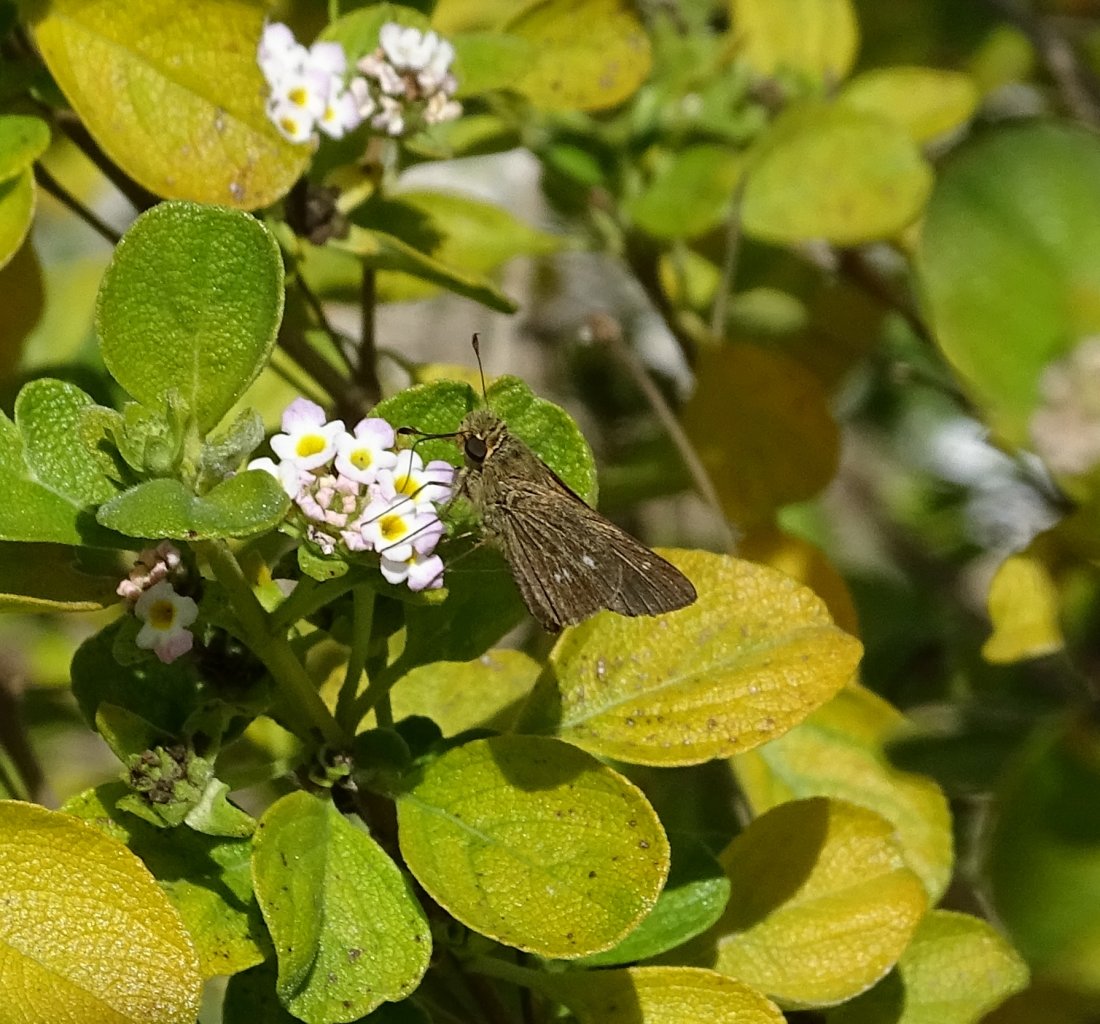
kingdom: Animalia
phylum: Arthropoda
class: Insecta
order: Lepidoptera
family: Hesperiidae
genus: Panoquina
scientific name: Panoquina panoquinoides
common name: Obscure Skipper
